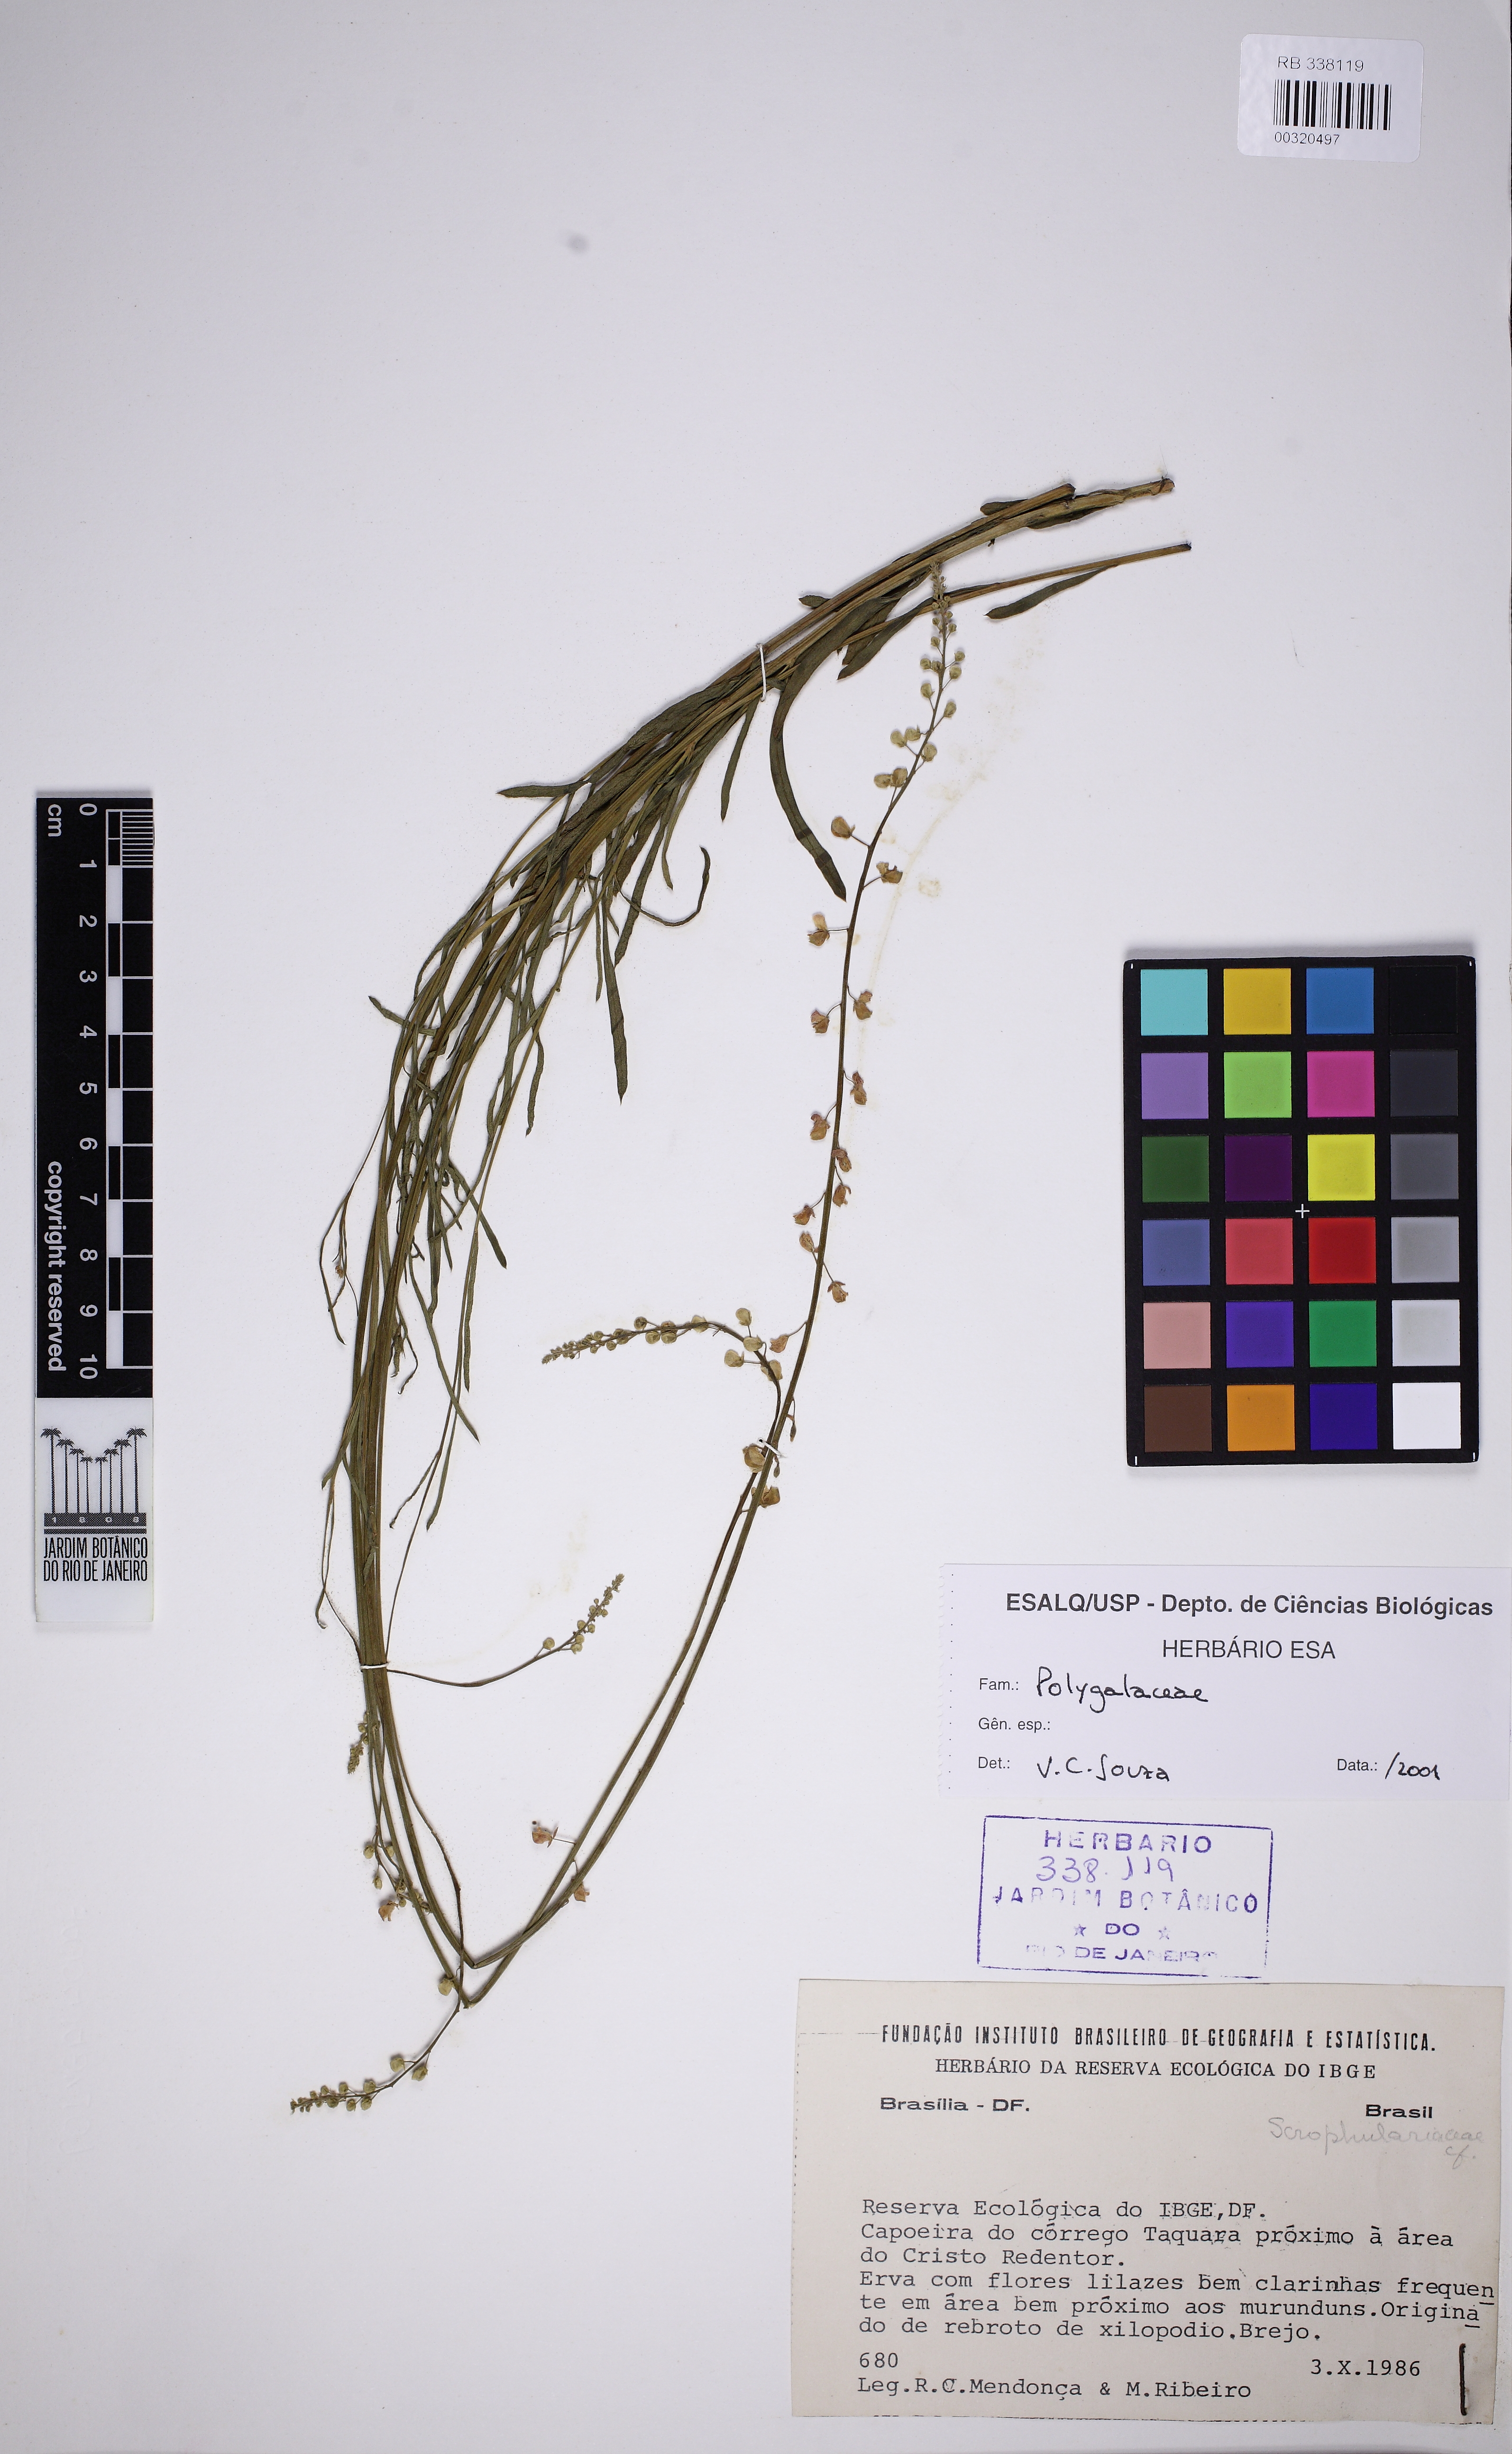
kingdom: Plantae
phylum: Tracheophyta
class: Magnoliopsida
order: Fabales
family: Polygalaceae
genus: Monnina
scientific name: Monnina exalata
